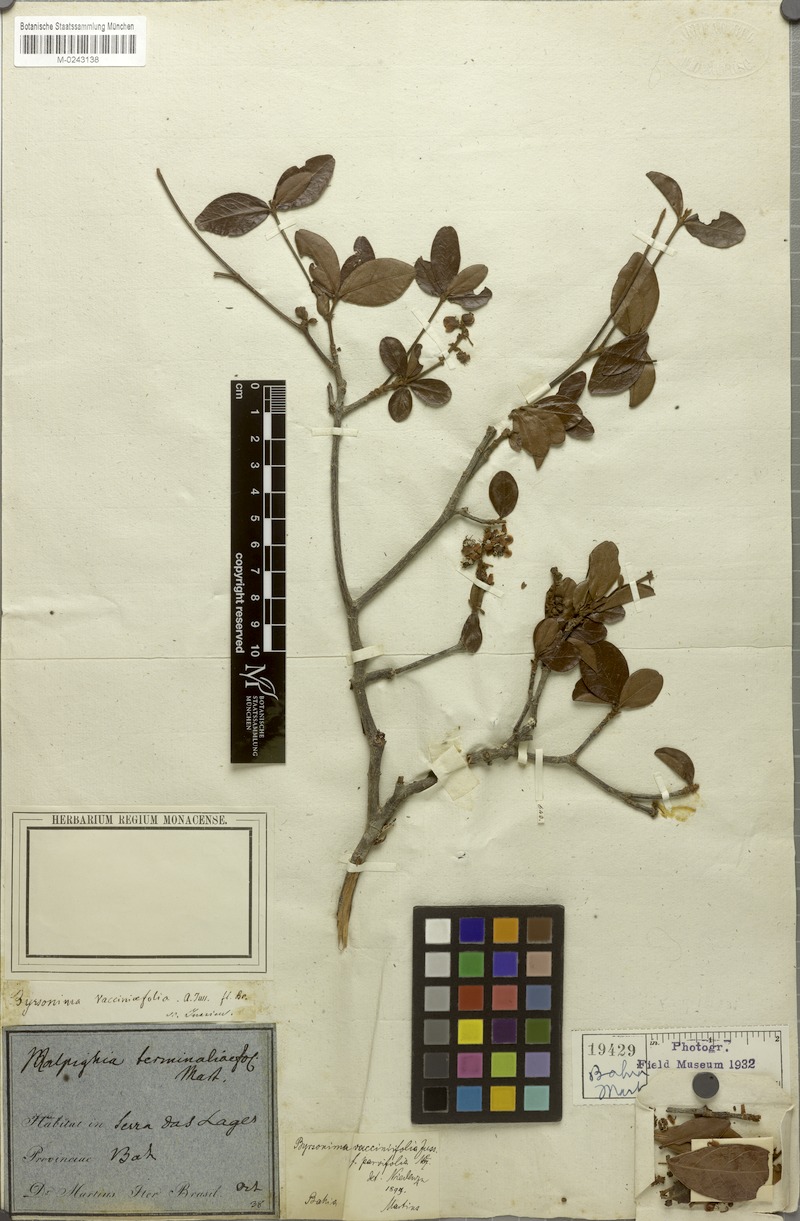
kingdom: Plantae
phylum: Tracheophyta
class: Magnoliopsida
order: Malpighiales
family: Malpighiaceae
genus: Byrsonima
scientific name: Byrsonima vacciniifolia
